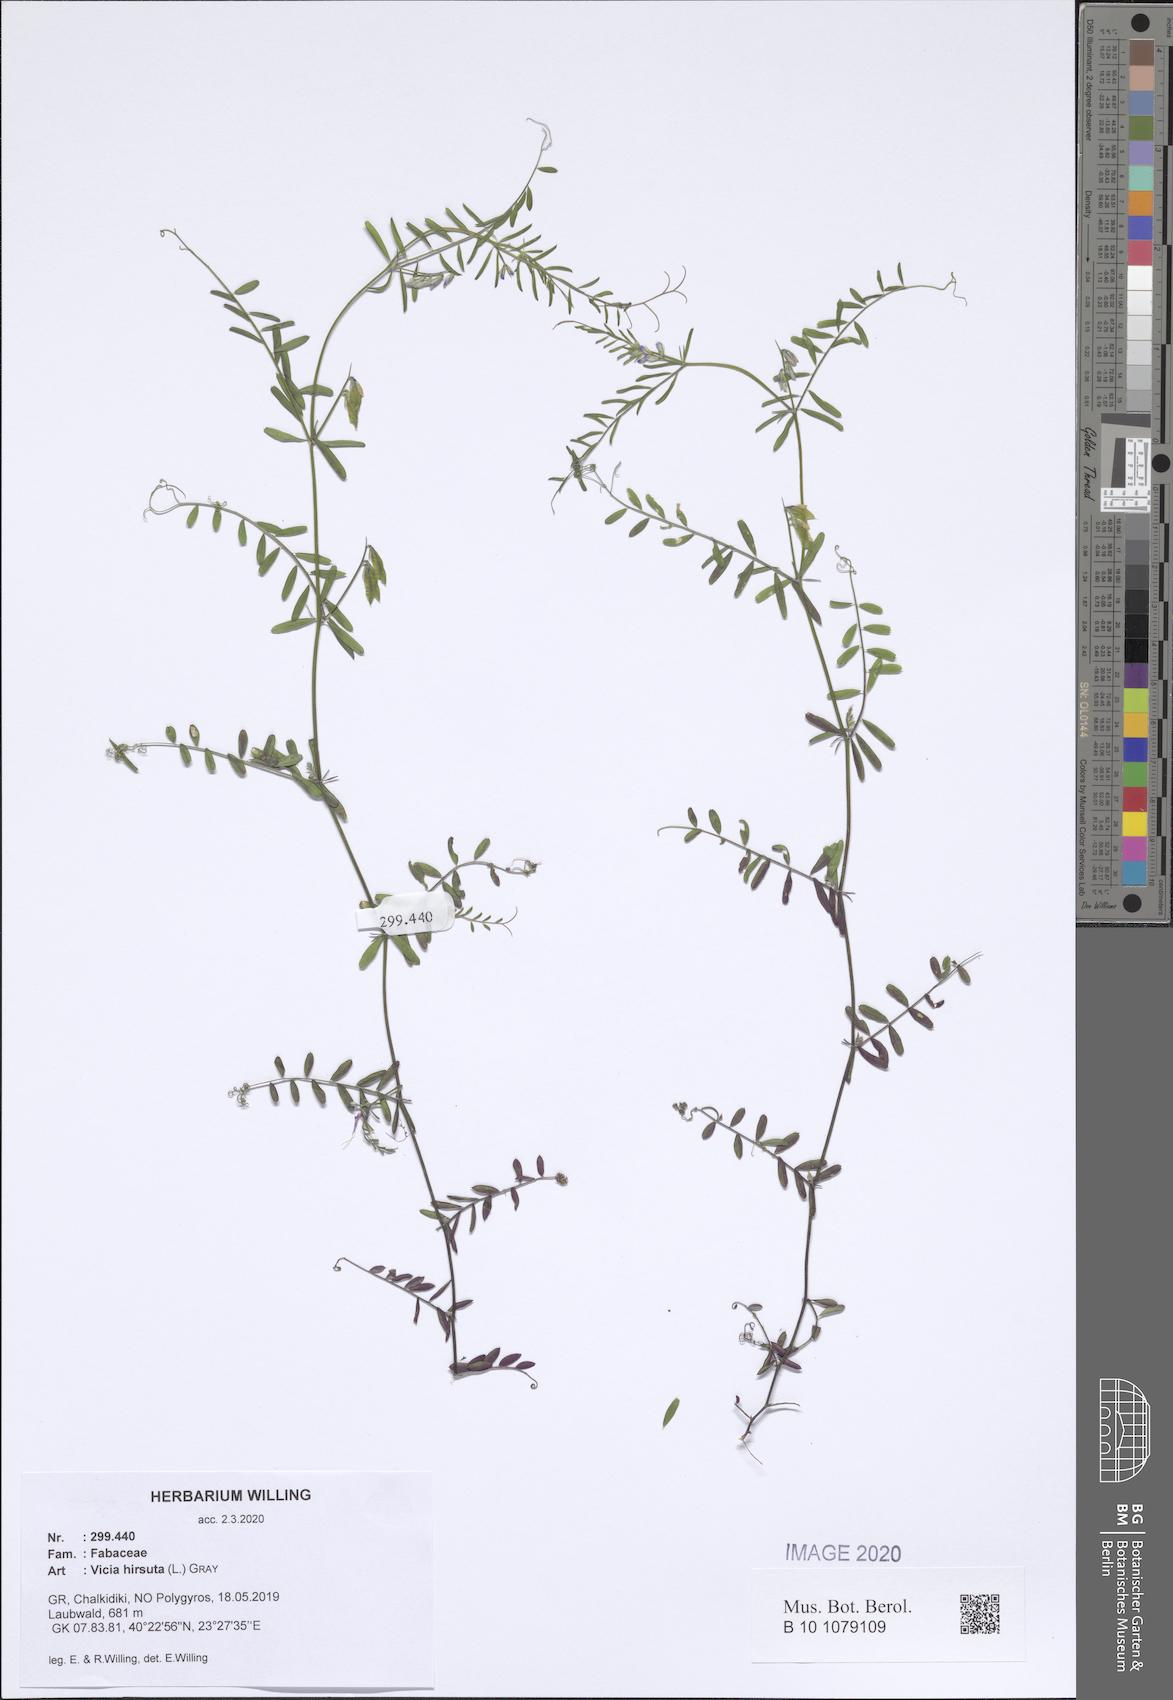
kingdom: Plantae
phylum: Tracheophyta
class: Magnoliopsida
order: Fabales
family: Fabaceae
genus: Vicia
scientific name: Vicia hirsuta
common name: Tiny vetch
